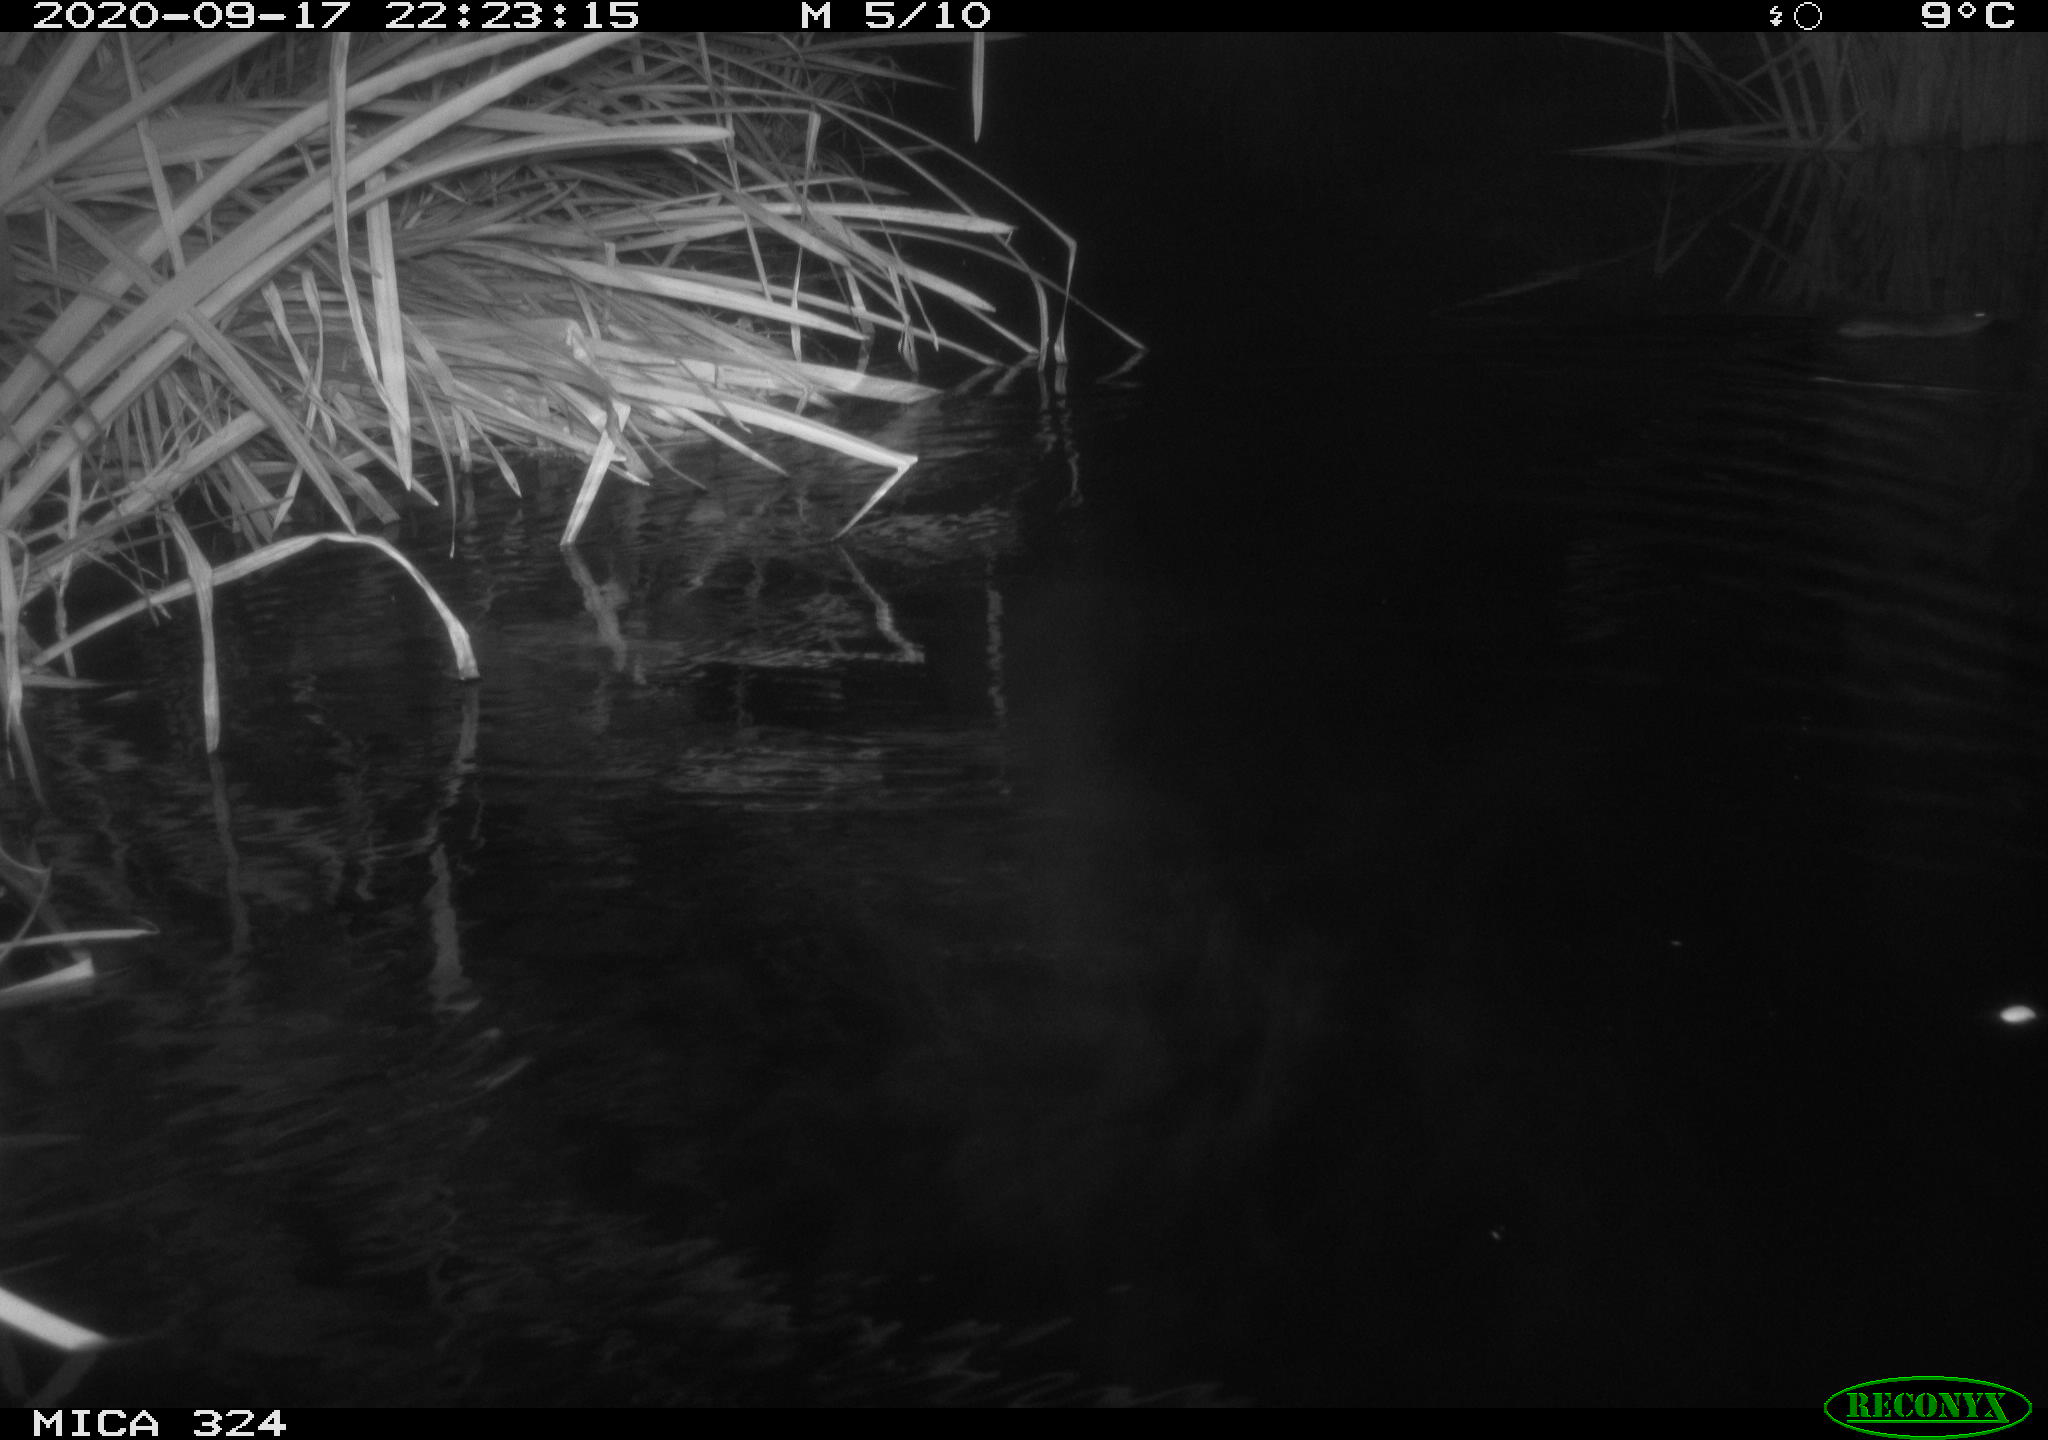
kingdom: Animalia
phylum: Chordata
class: Mammalia
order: Rodentia
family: Cricetidae
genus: Ondatra
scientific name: Ondatra zibethicus
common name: Muskrat
